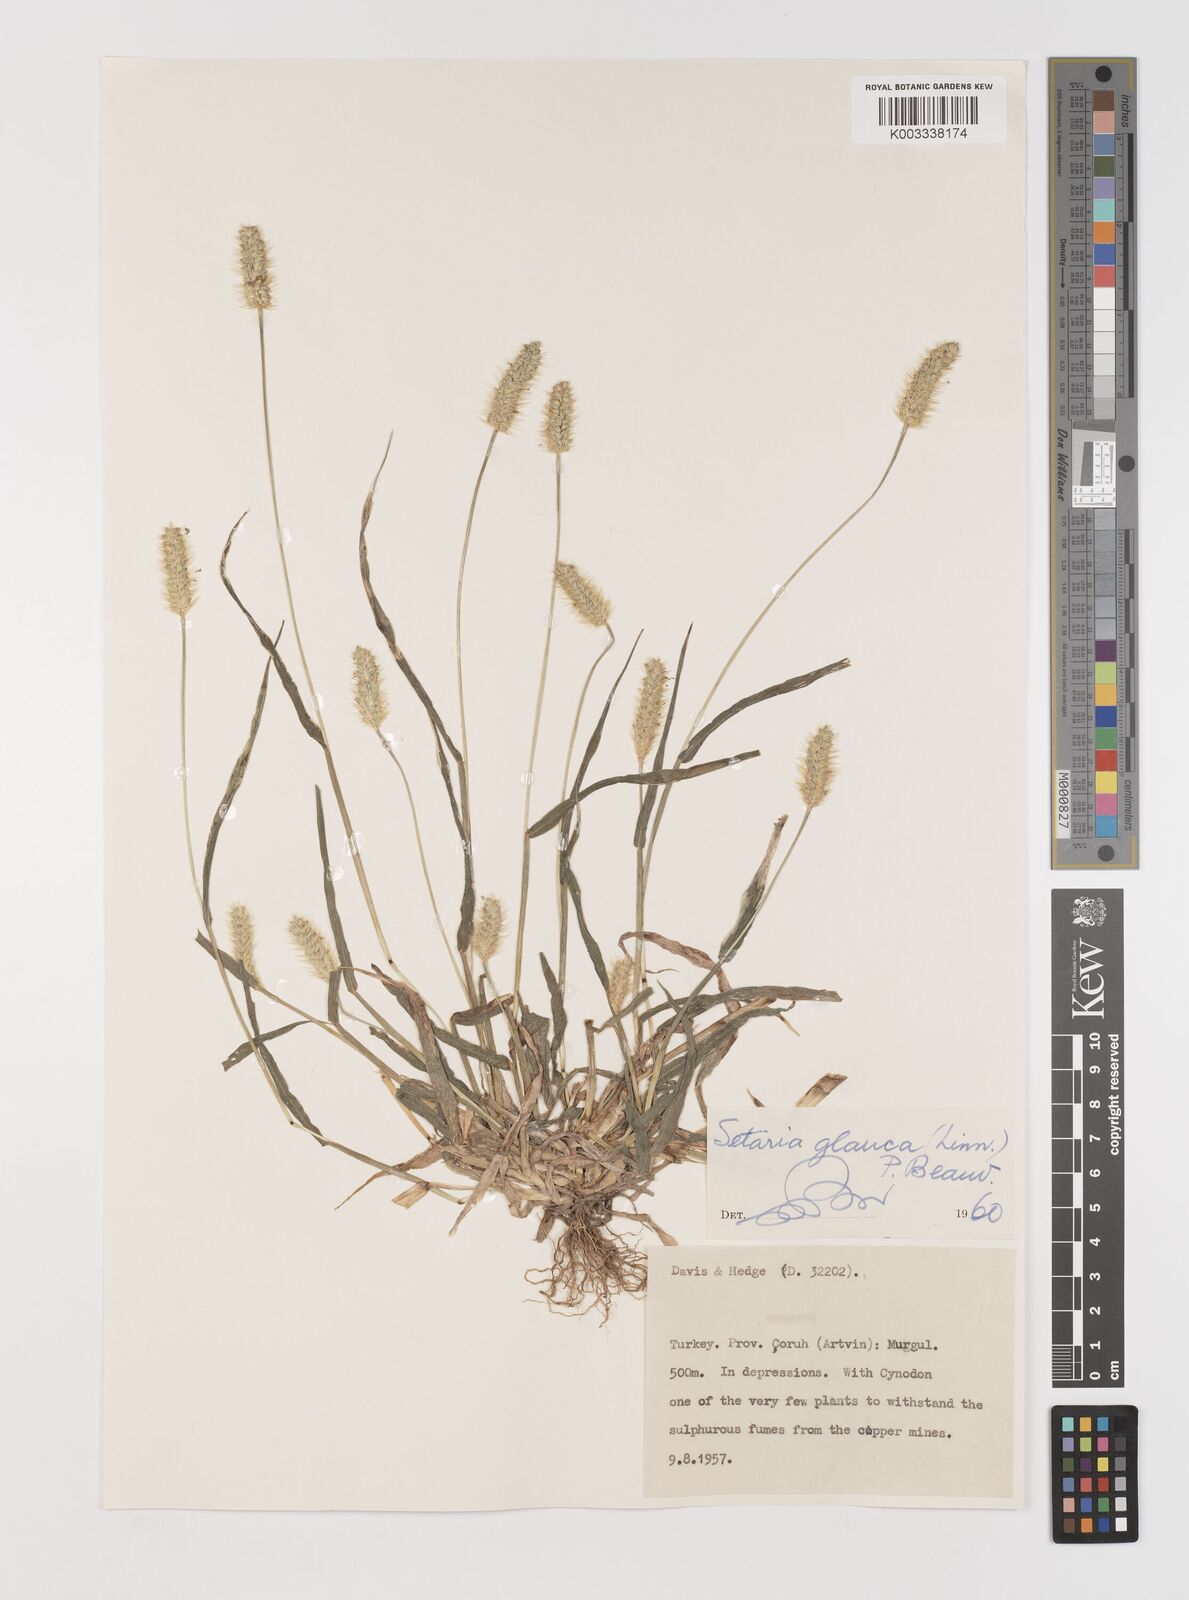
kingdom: Plantae
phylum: Tracheophyta
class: Liliopsida
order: Poales
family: Poaceae
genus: Setaria
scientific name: Setaria pumila
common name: Yellow bristle-grass
